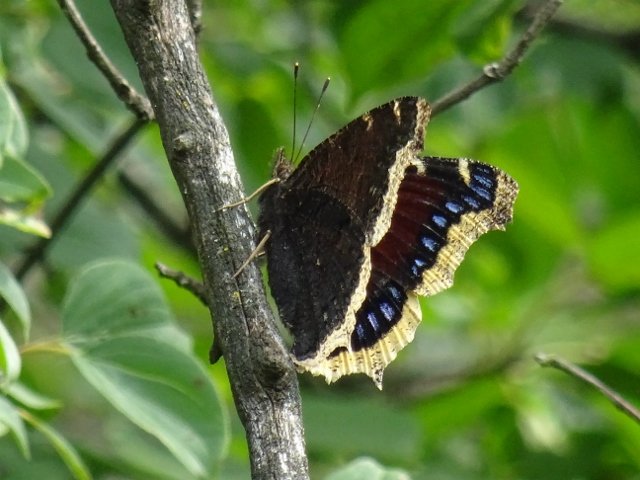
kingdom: Animalia
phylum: Arthropoda
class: Insecta
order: Lepidoptera
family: Nymphalidae
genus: Nymphalis
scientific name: Nymphalis antiopa
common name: Mourning Cloak
